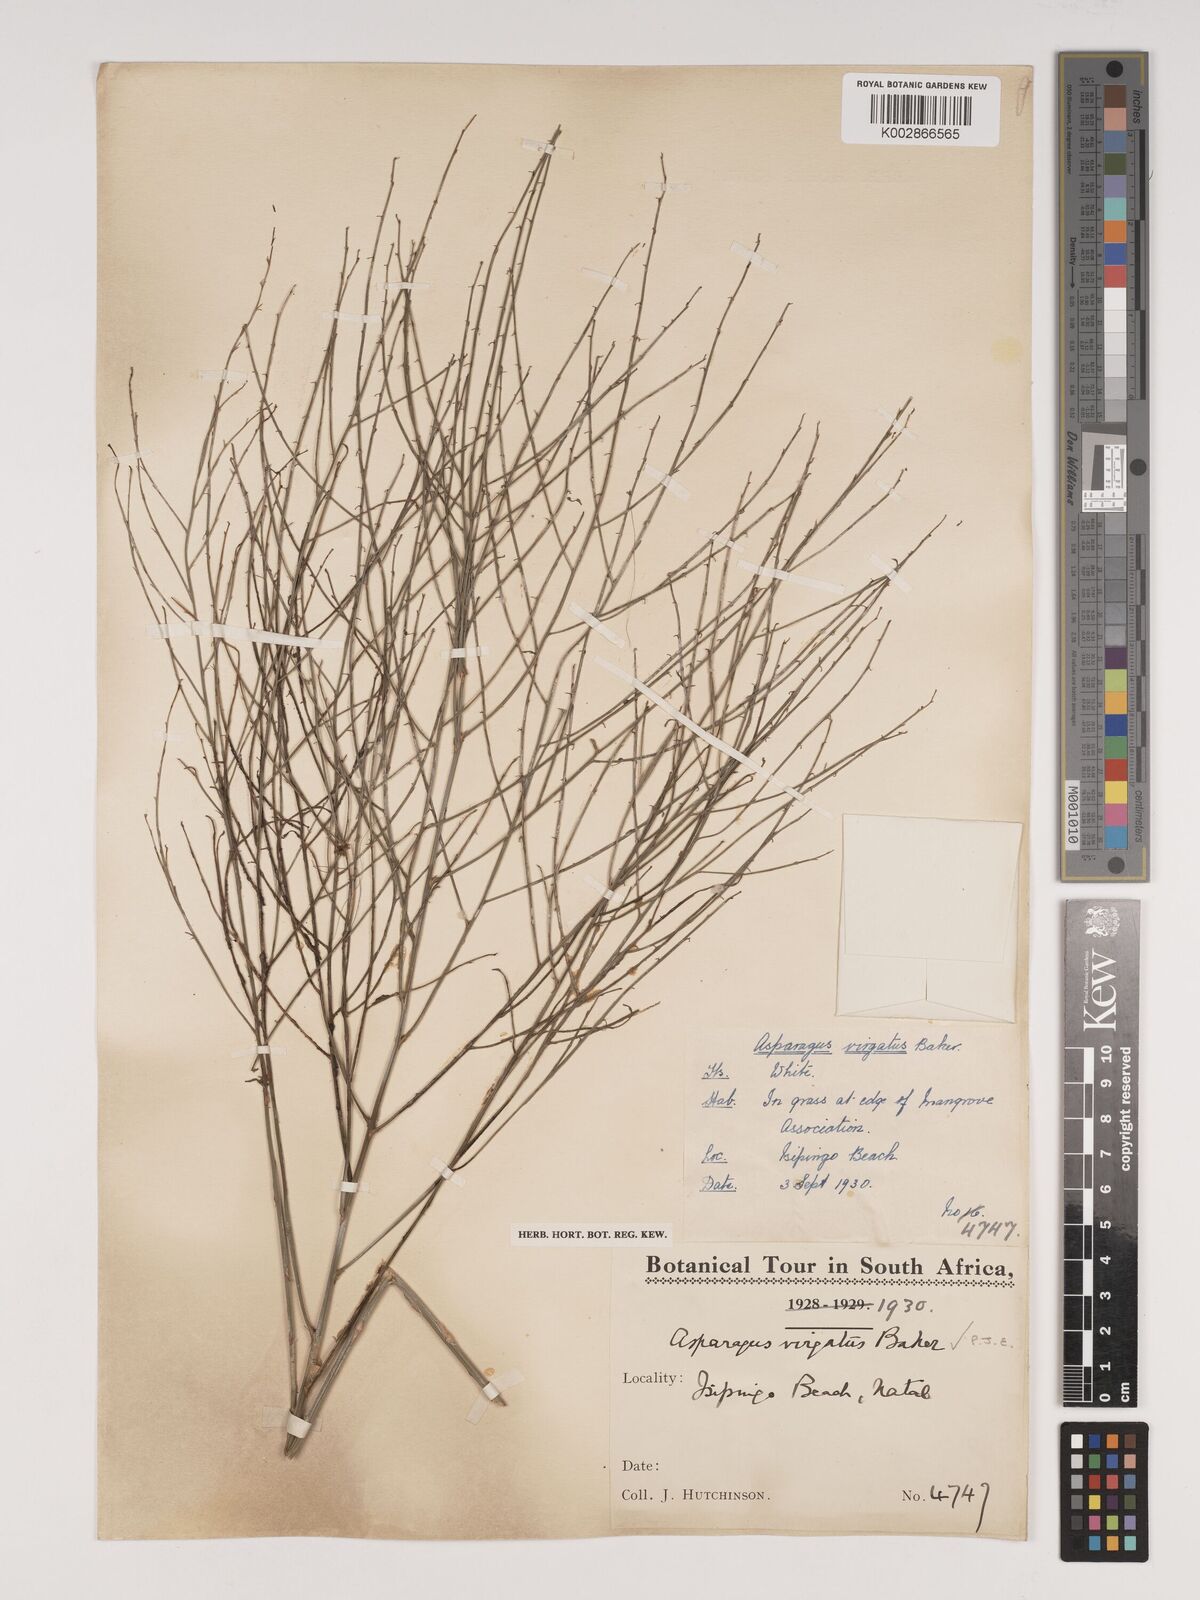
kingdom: Plantae
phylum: Tracheophyta
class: Liliopsida
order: Asparagales
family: Asparagaceae
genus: Asparagus
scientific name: Asparagus virgatus
